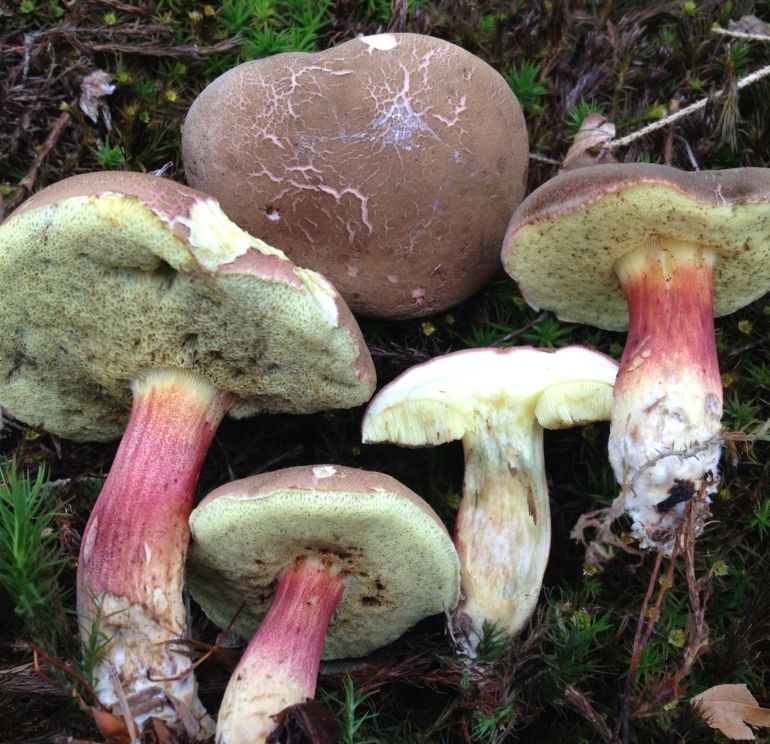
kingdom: Fungi
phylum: Basidiomycota
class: Agaricomycetes
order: Boletales
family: Boletaceae
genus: Xerocomellus
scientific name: Xerocomellus chrysenteron
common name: rødsprukken rørhat
